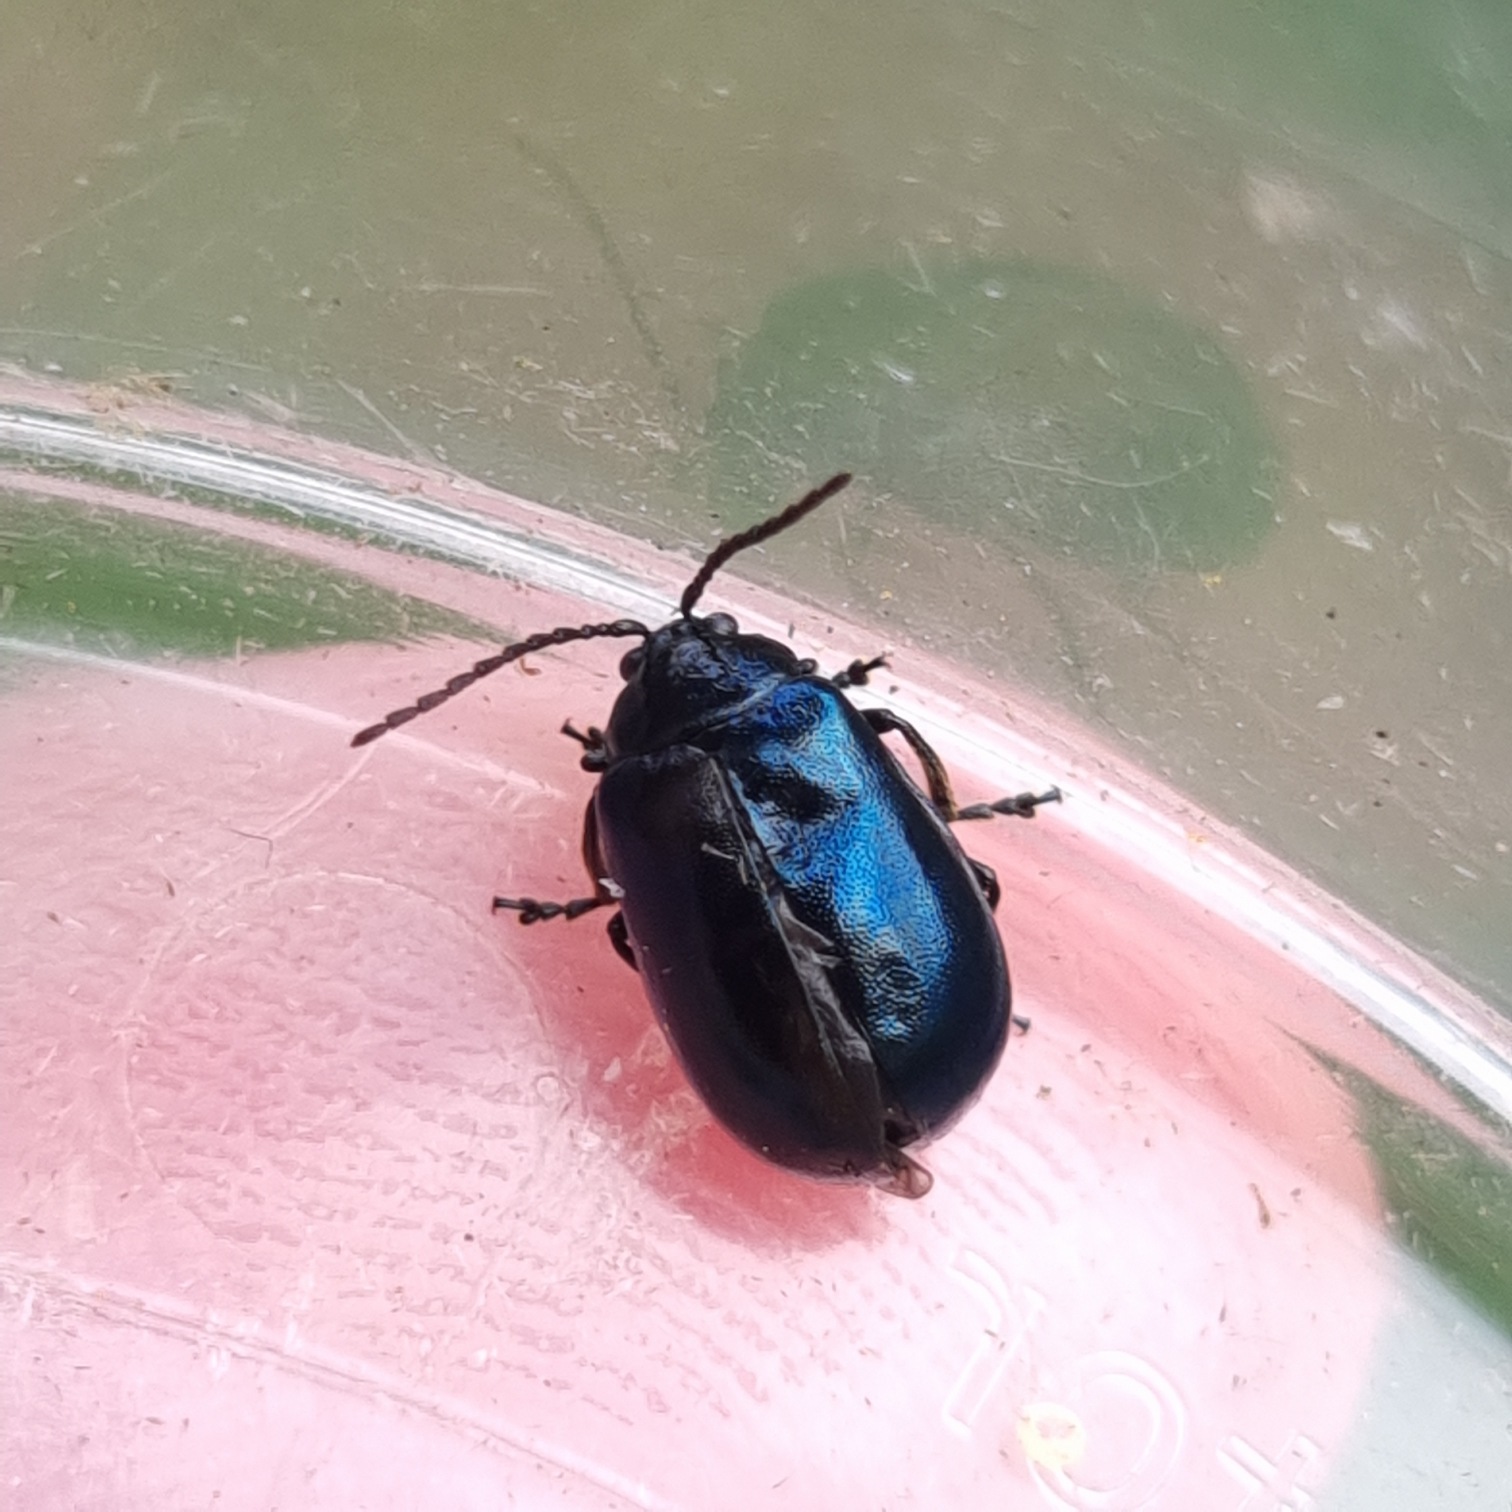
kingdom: Animalia
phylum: Arthropoda
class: Insecta
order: Coleoptera
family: Chrysomelidae
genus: Agelastica
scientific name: Agelastica alni
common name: Ellebladbille
